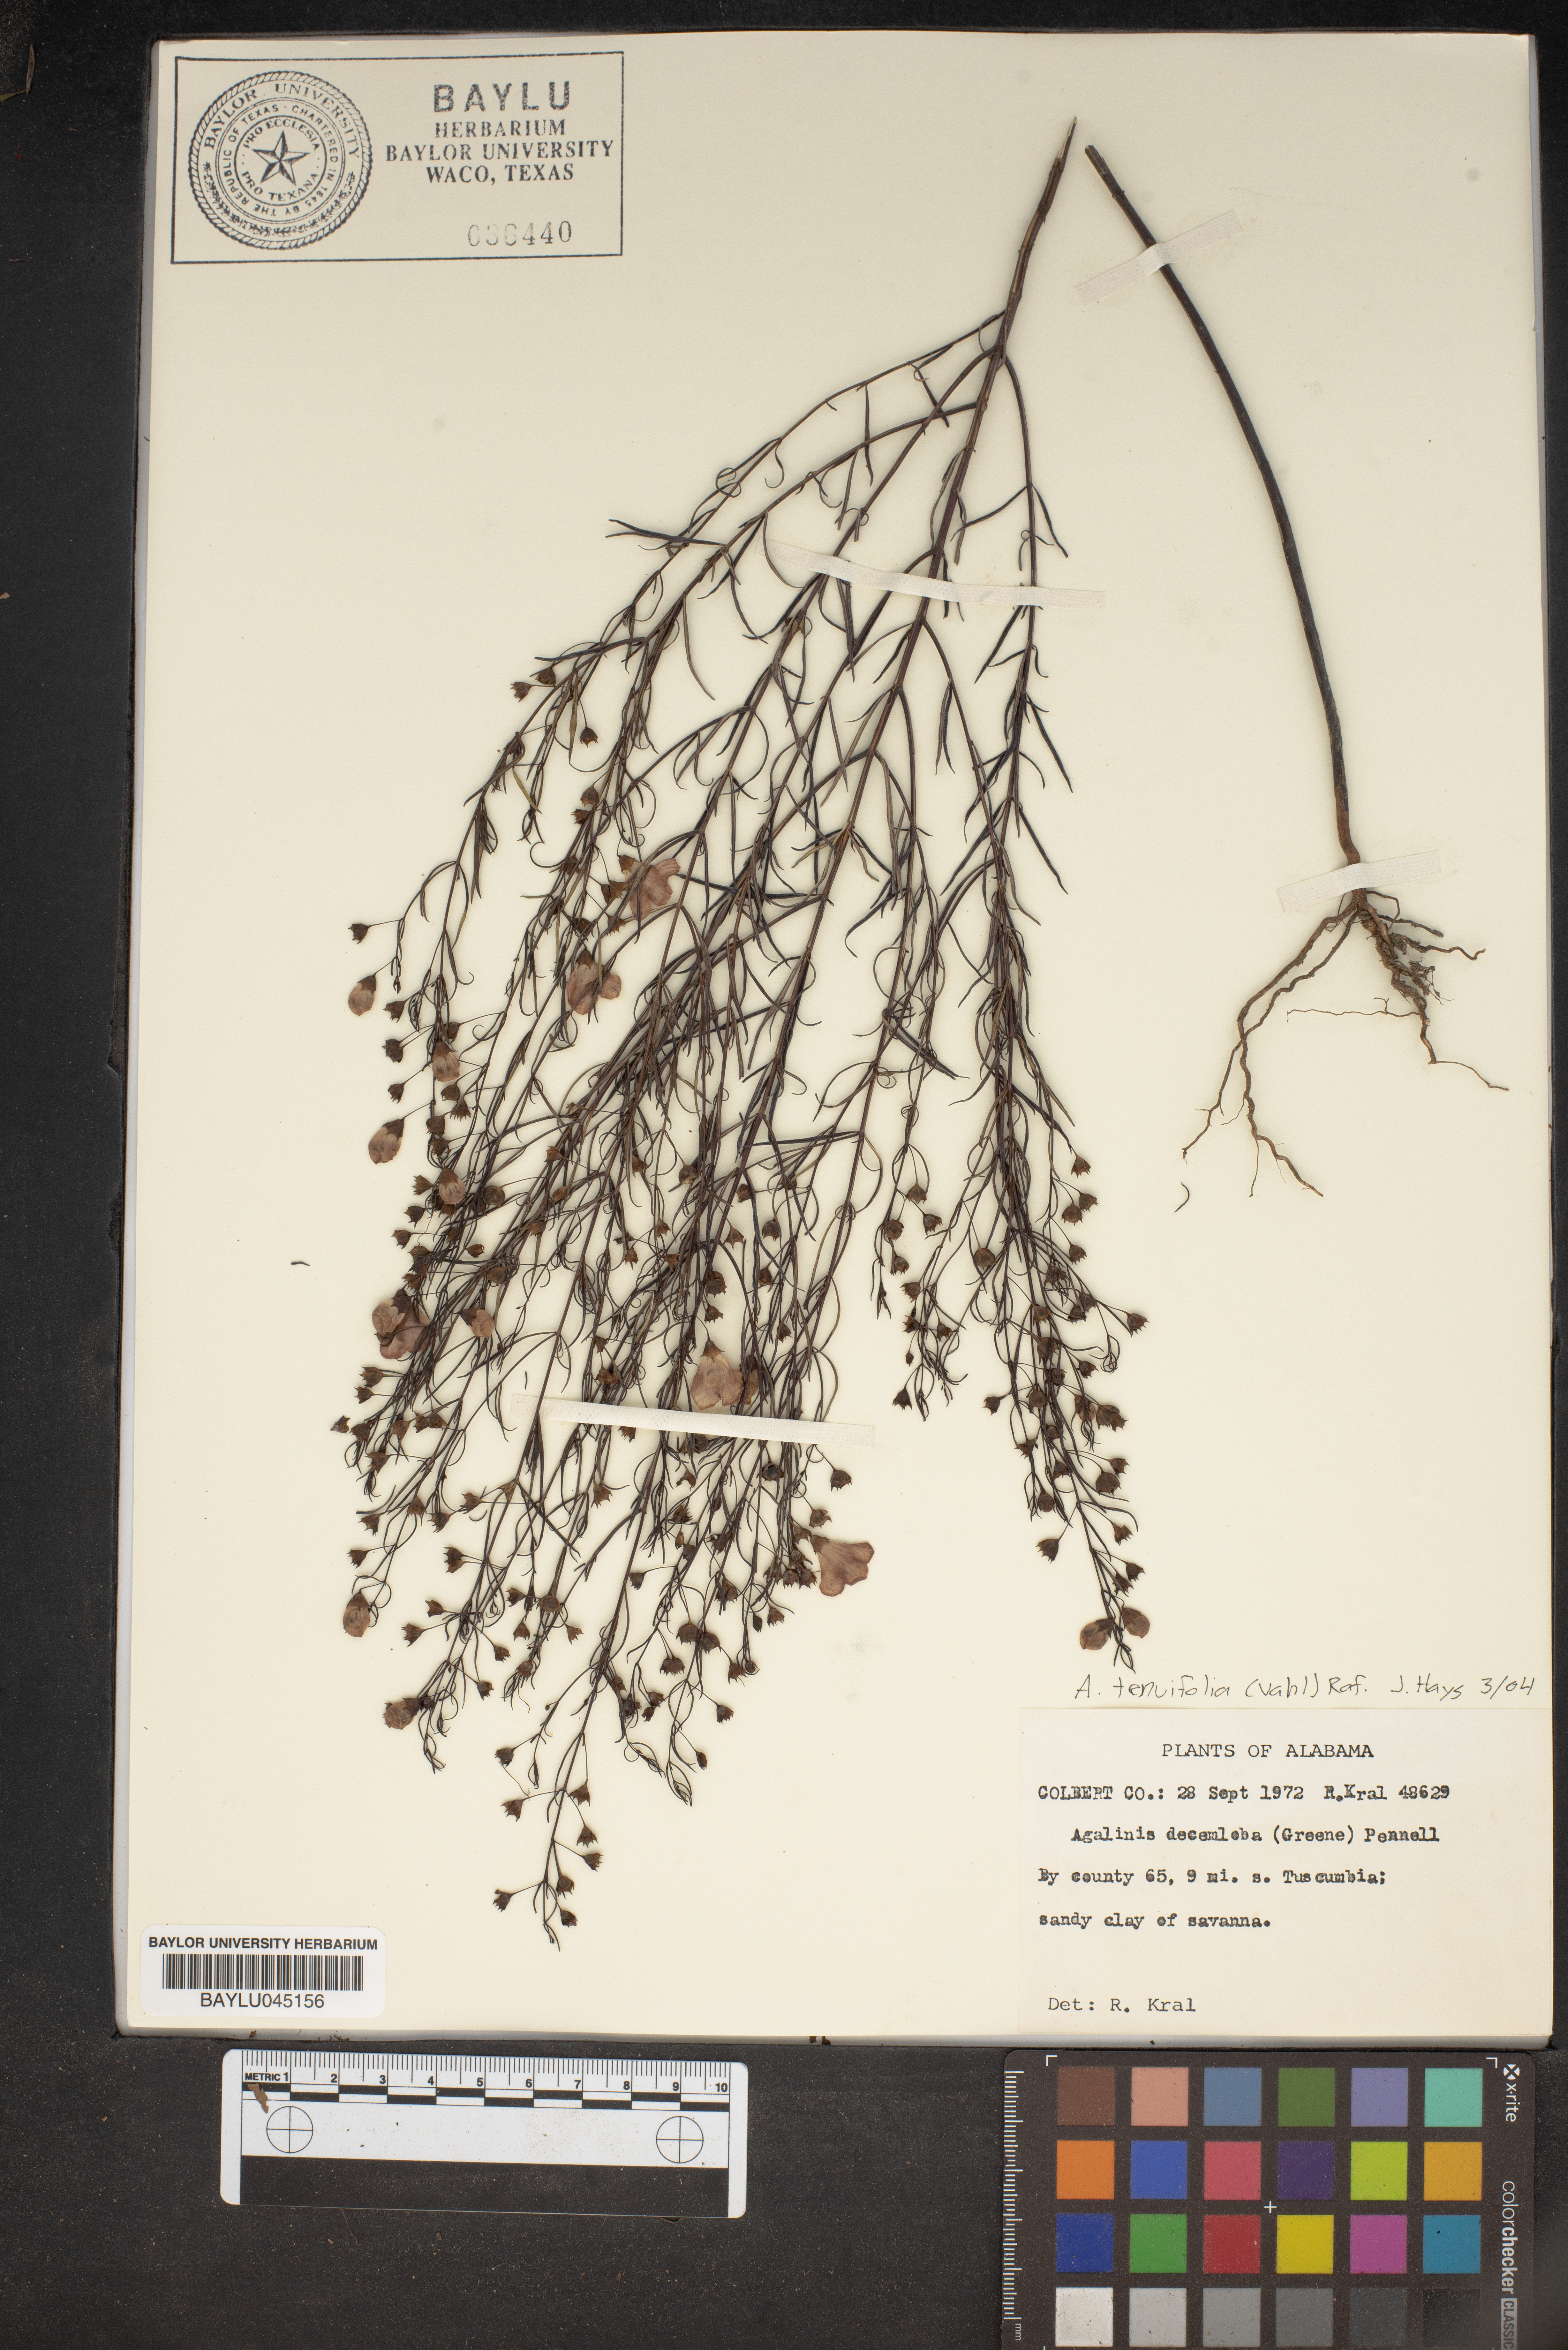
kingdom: Plantae
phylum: Tracheophyta
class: Magnoliopsida
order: Lamiales
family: Orobanchaceae
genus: Agalinis
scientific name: Agalinis decemloba
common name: Ten-lobed false foxglove
